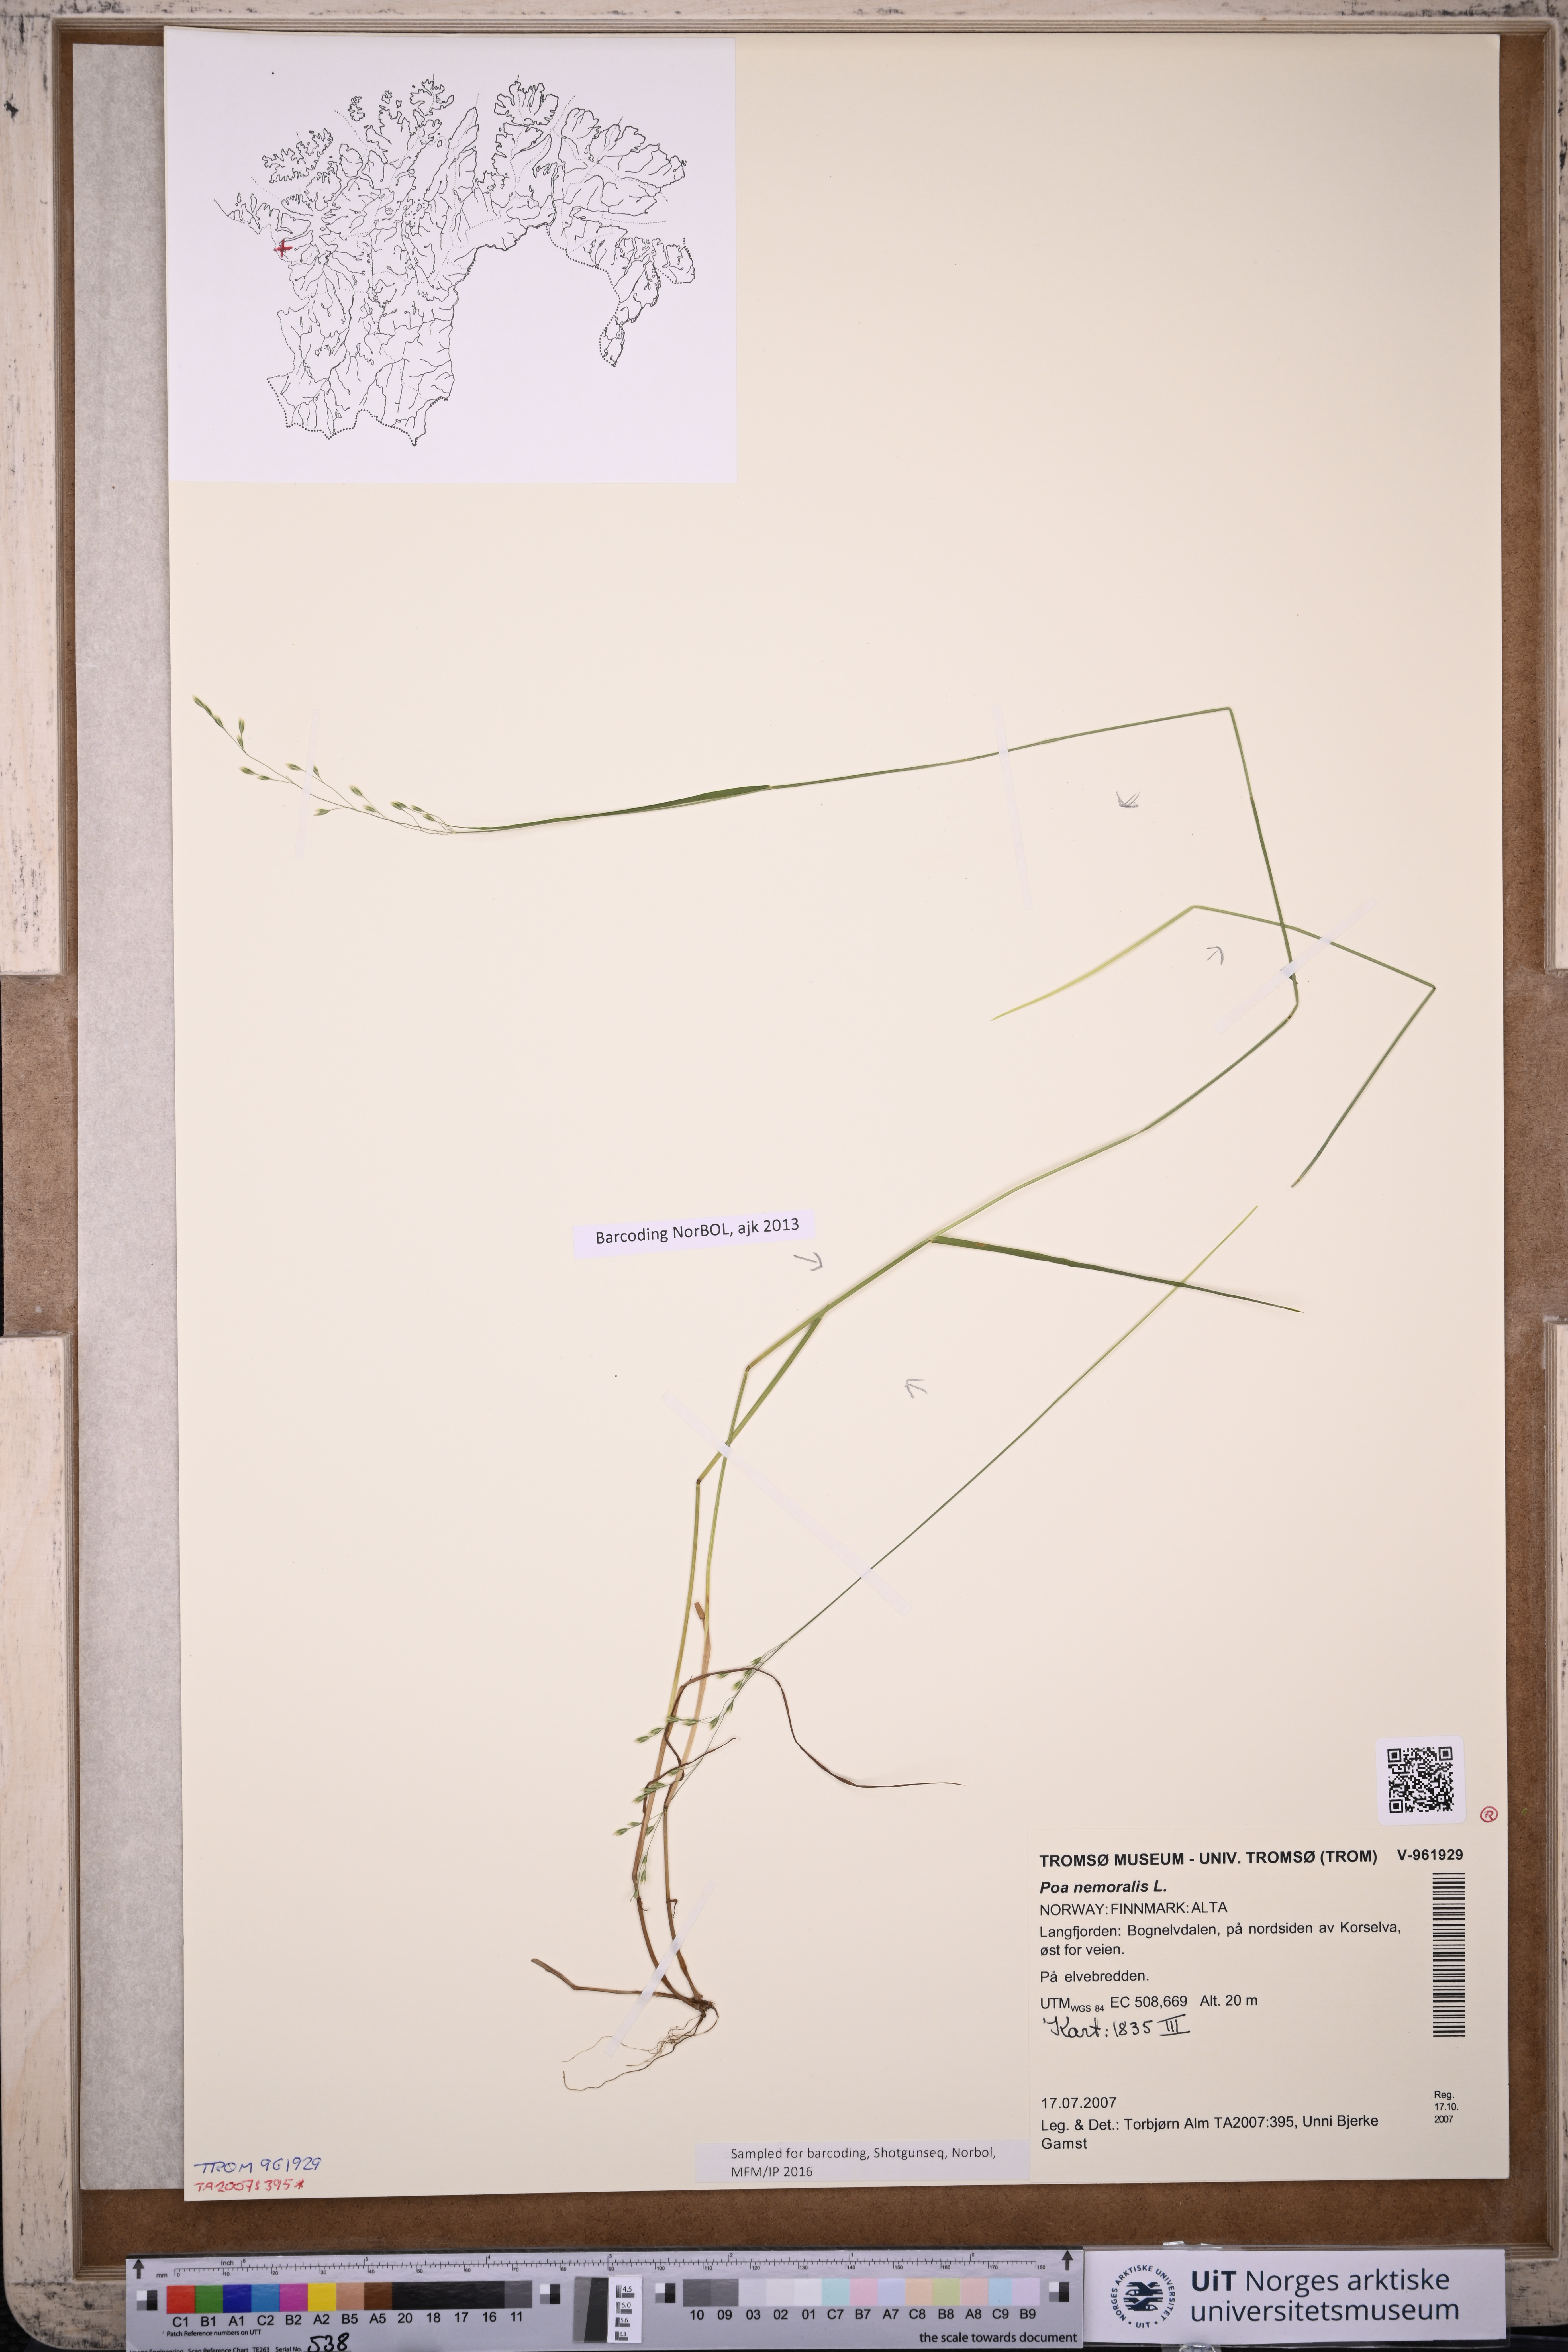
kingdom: Plantae
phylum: Tracheophyta
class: Liliopsida
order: Poales
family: Poaceae
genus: Poa
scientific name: Poa nemoralis
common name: Wood bluegrass
